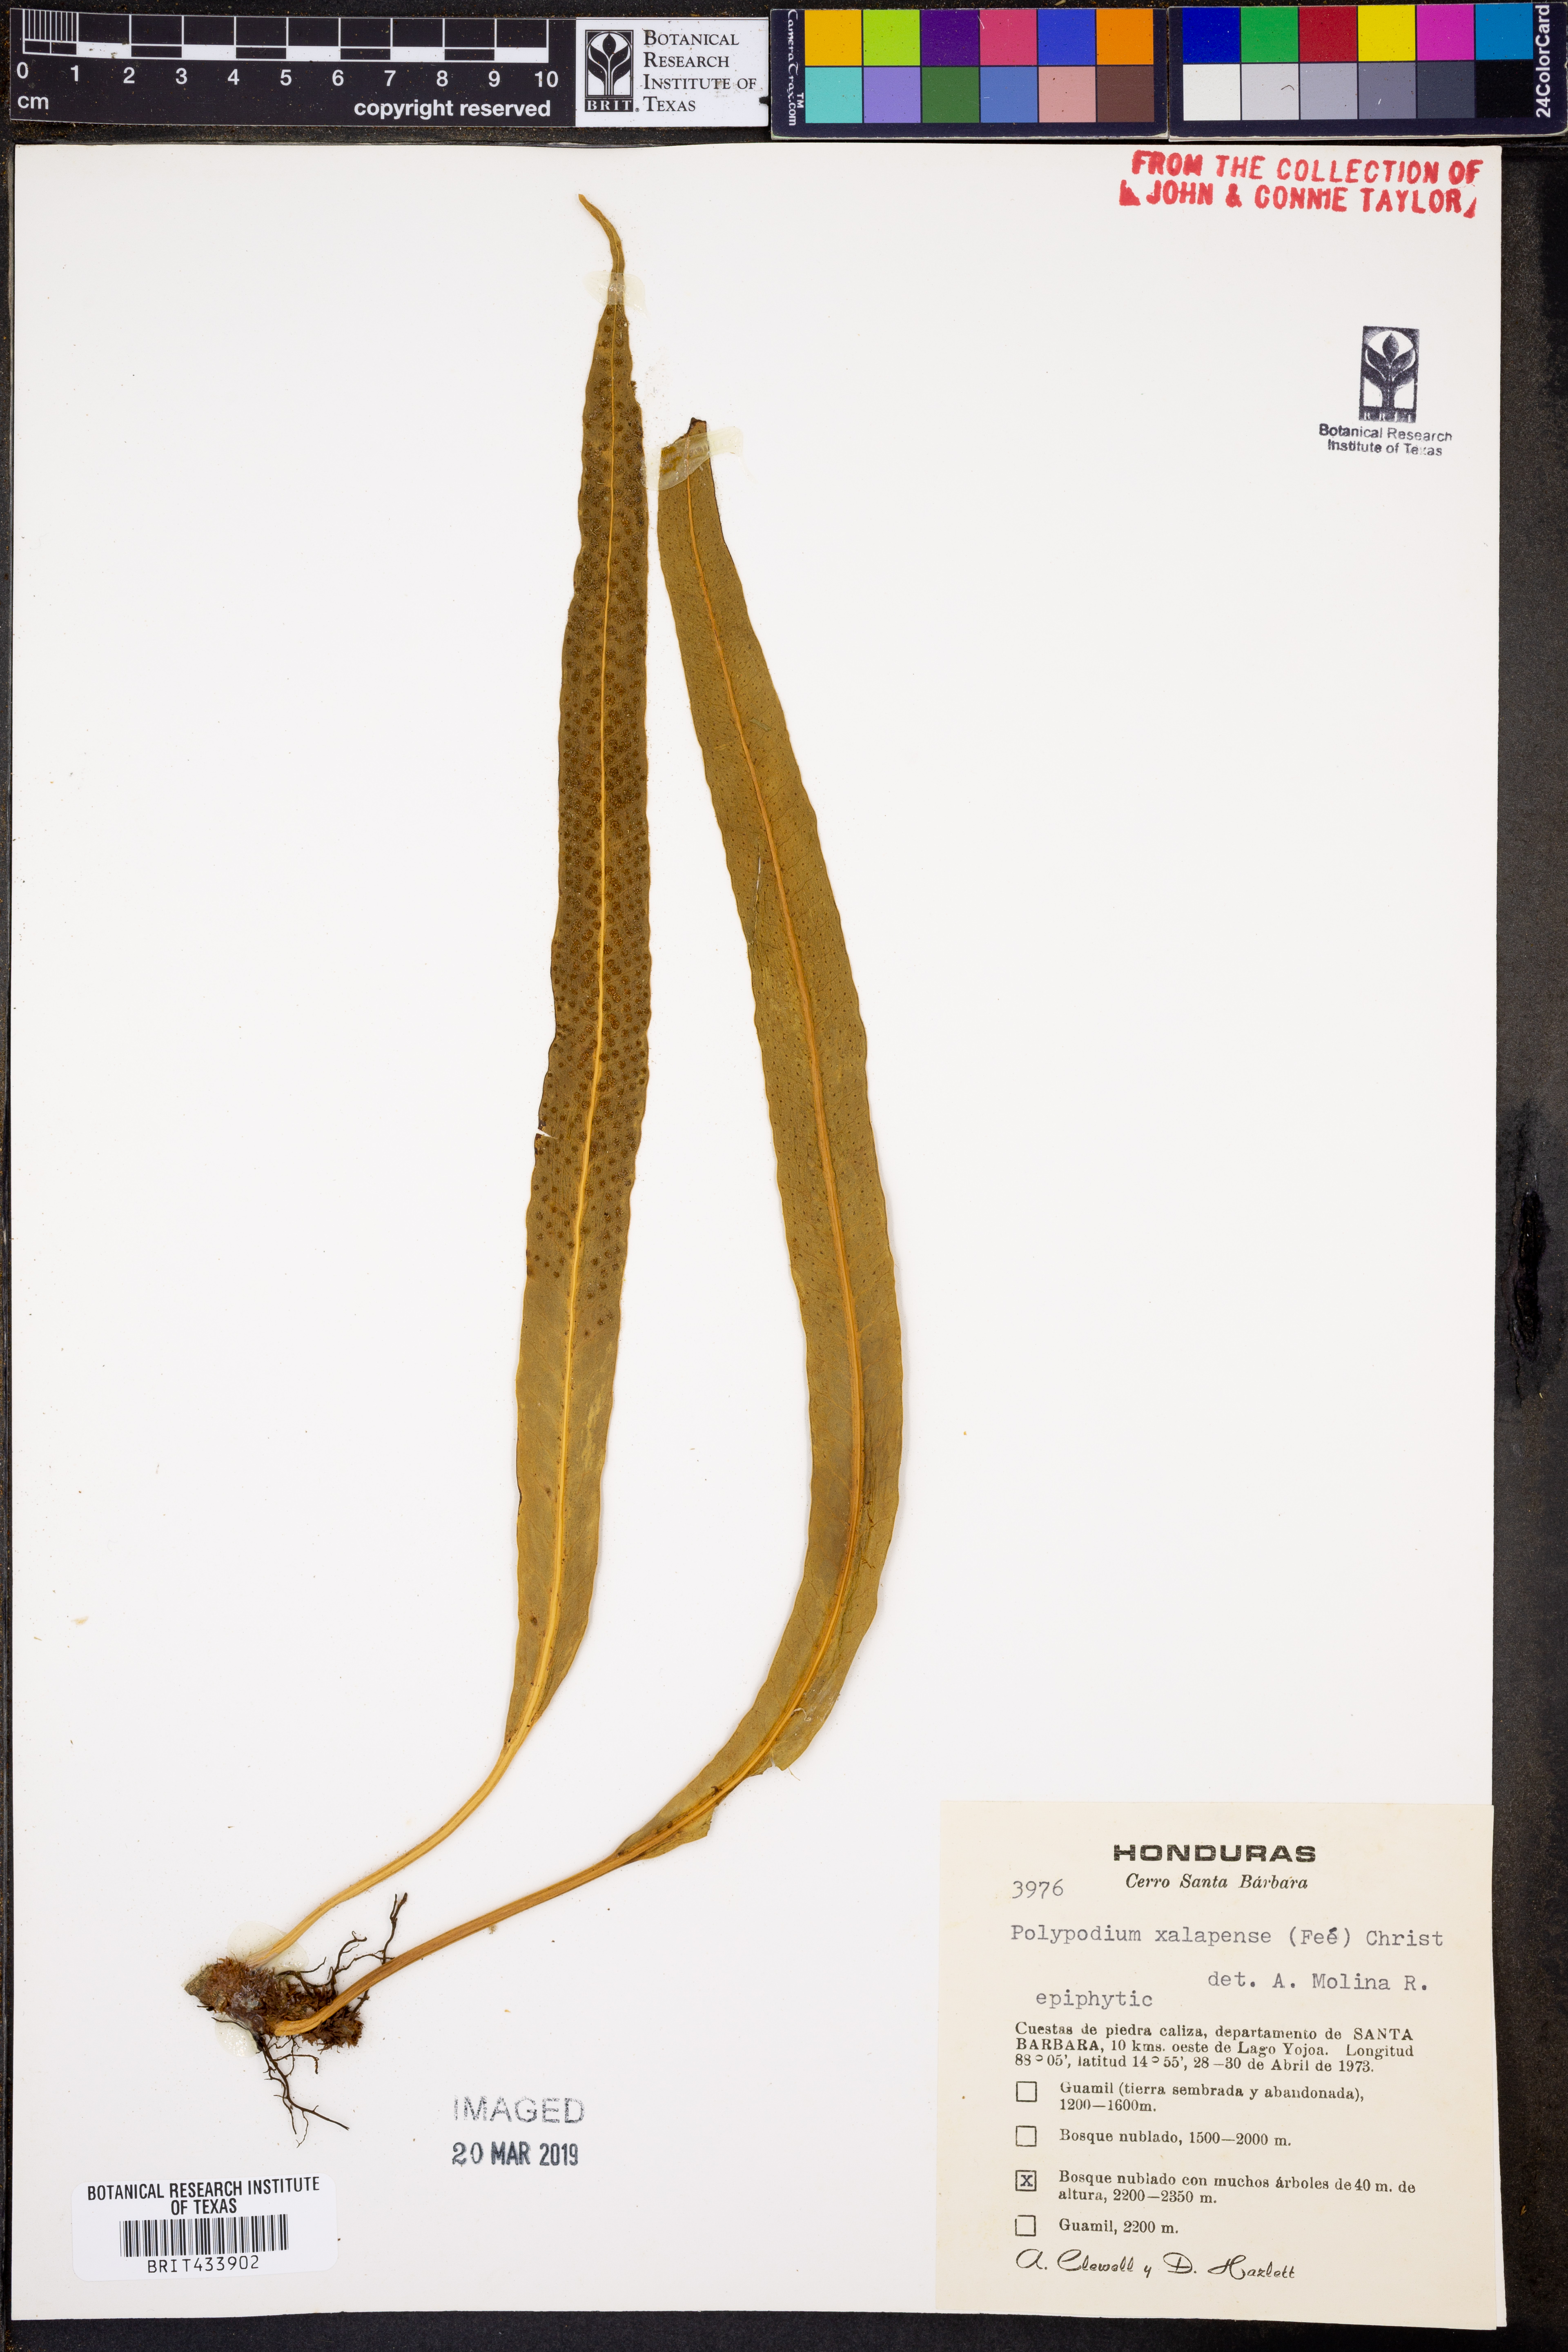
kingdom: Plantae
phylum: Tracheophyta
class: Polypodiopsida
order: Polypodiales
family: Polypodiaceae
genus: Campyloneurum
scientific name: Campyloneurum xalapense
